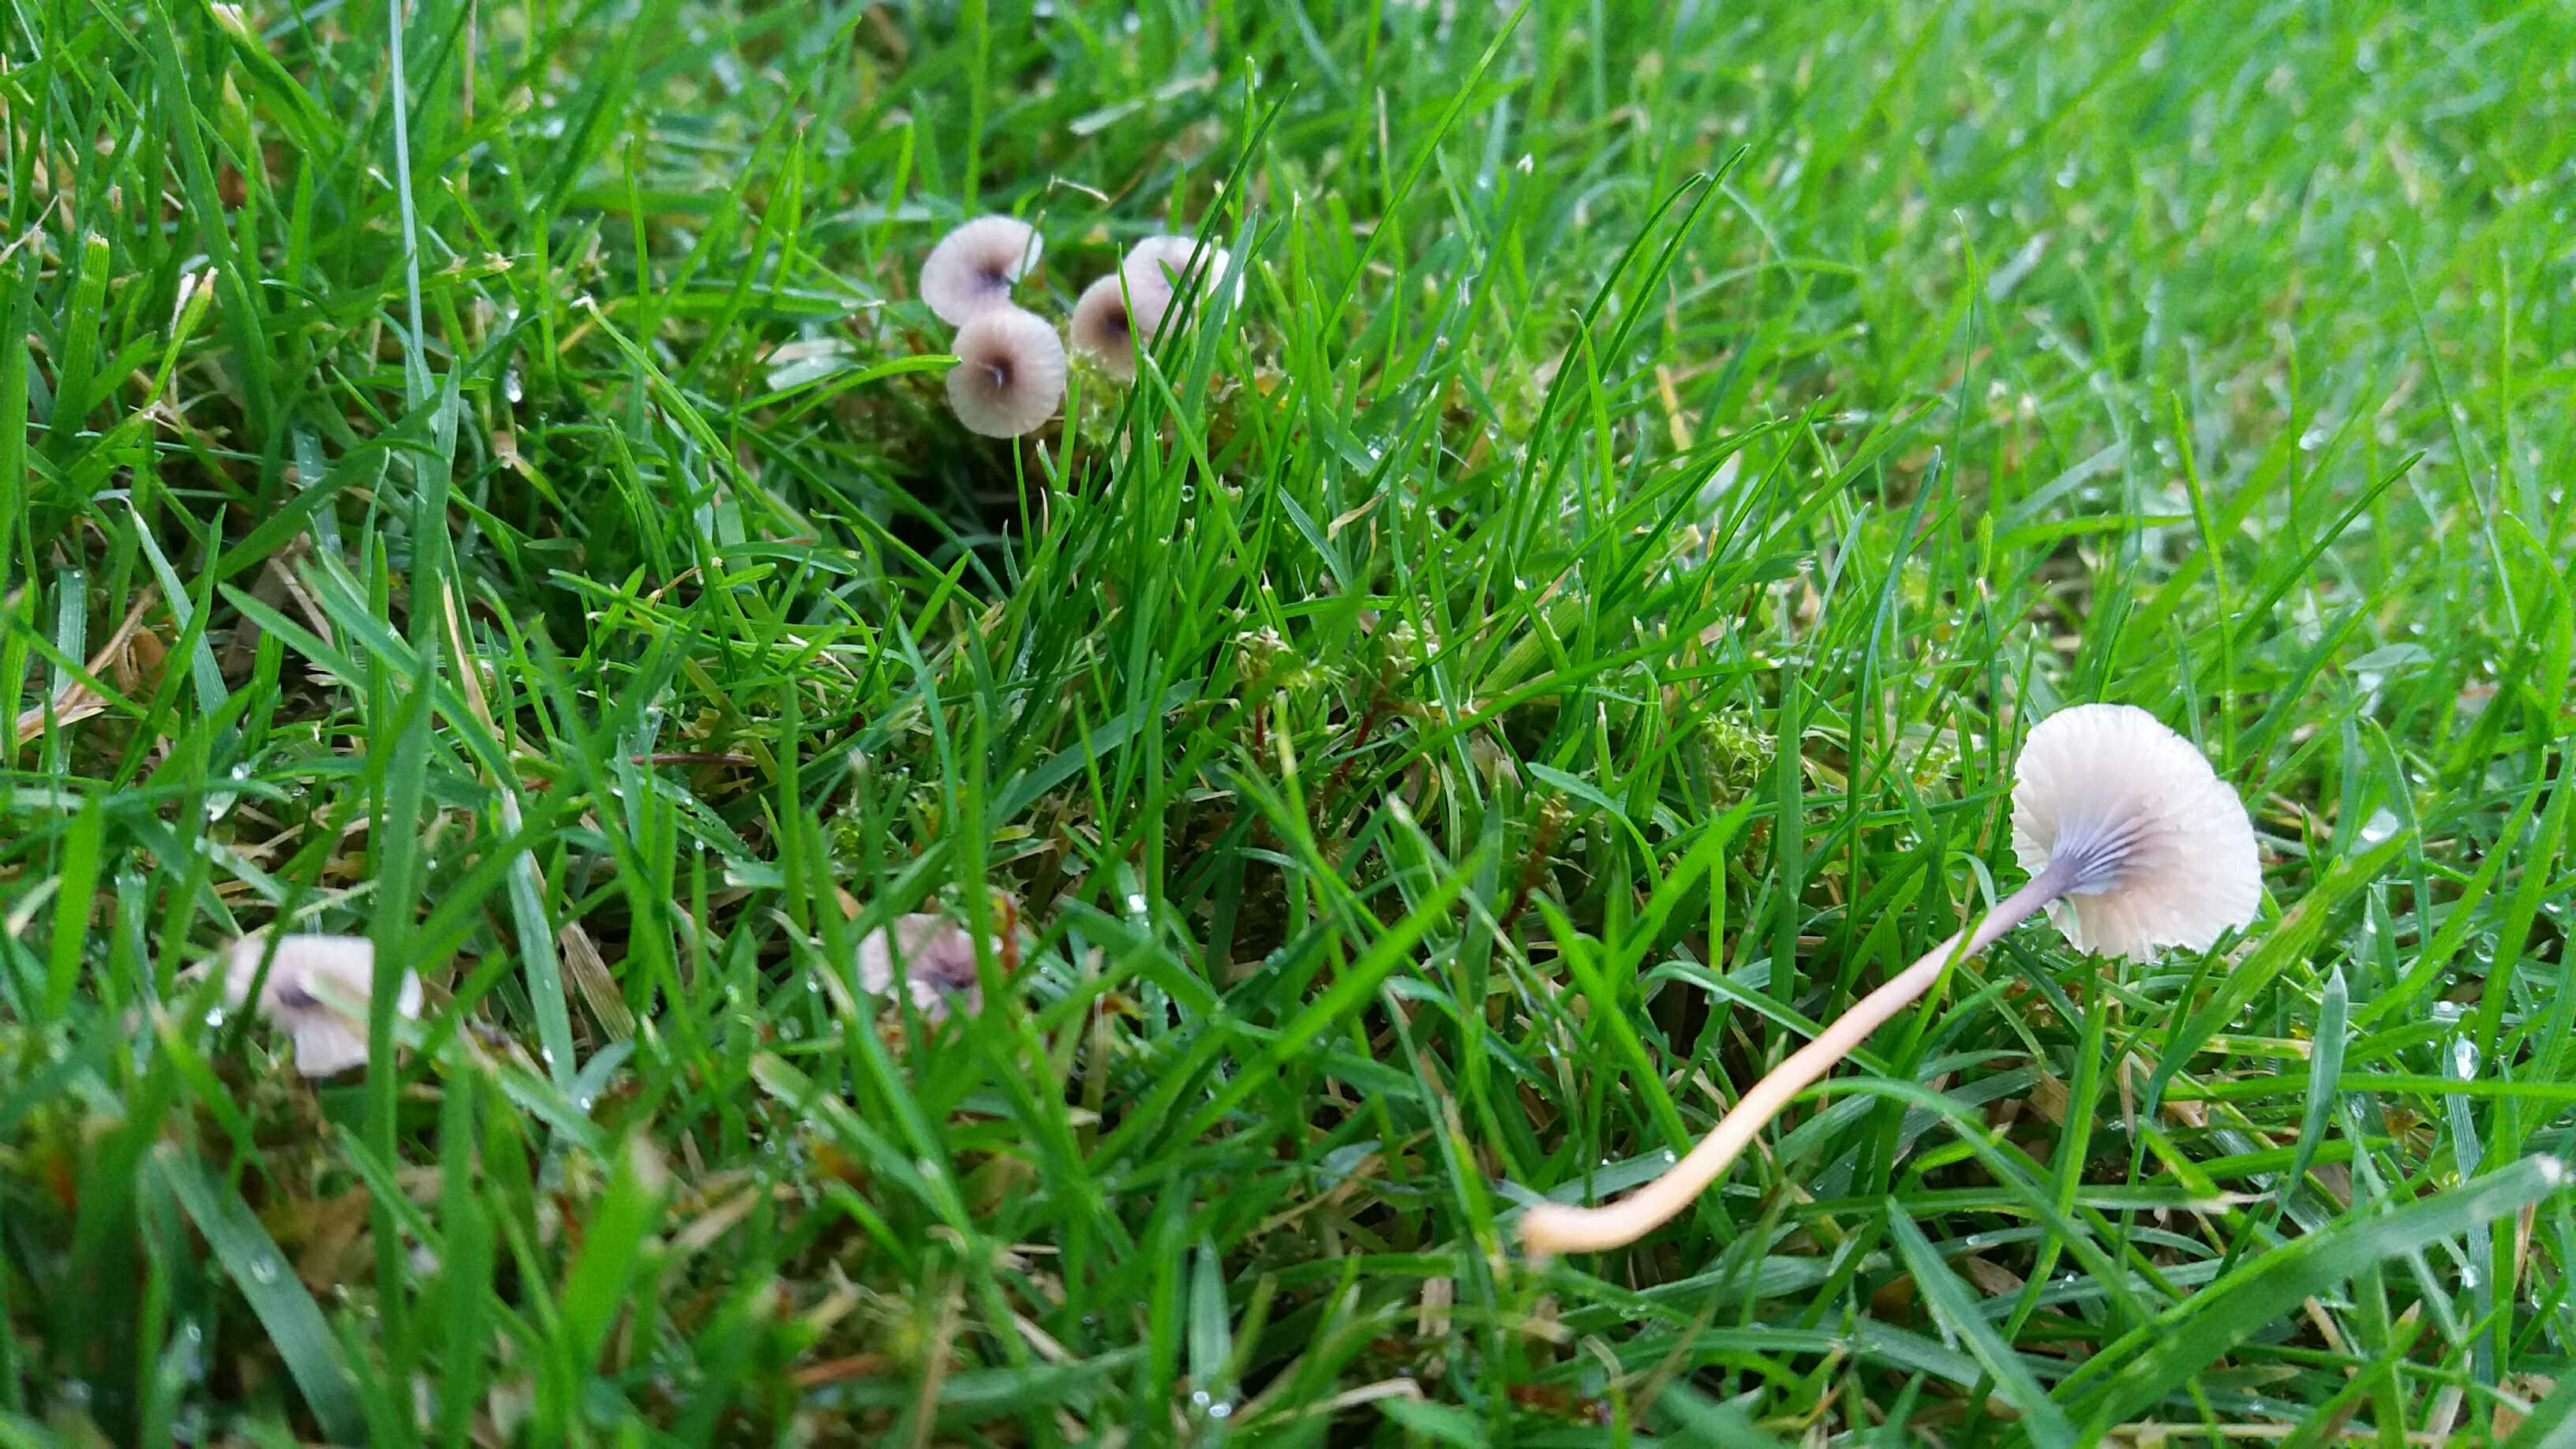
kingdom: Fungi
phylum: Basidiomycota
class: Agaricomycetes
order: Hymenochaetales
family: Rickenellaceae
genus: Rickenella
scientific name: Rickenella swartzii
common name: finstokket mosnavlehat
